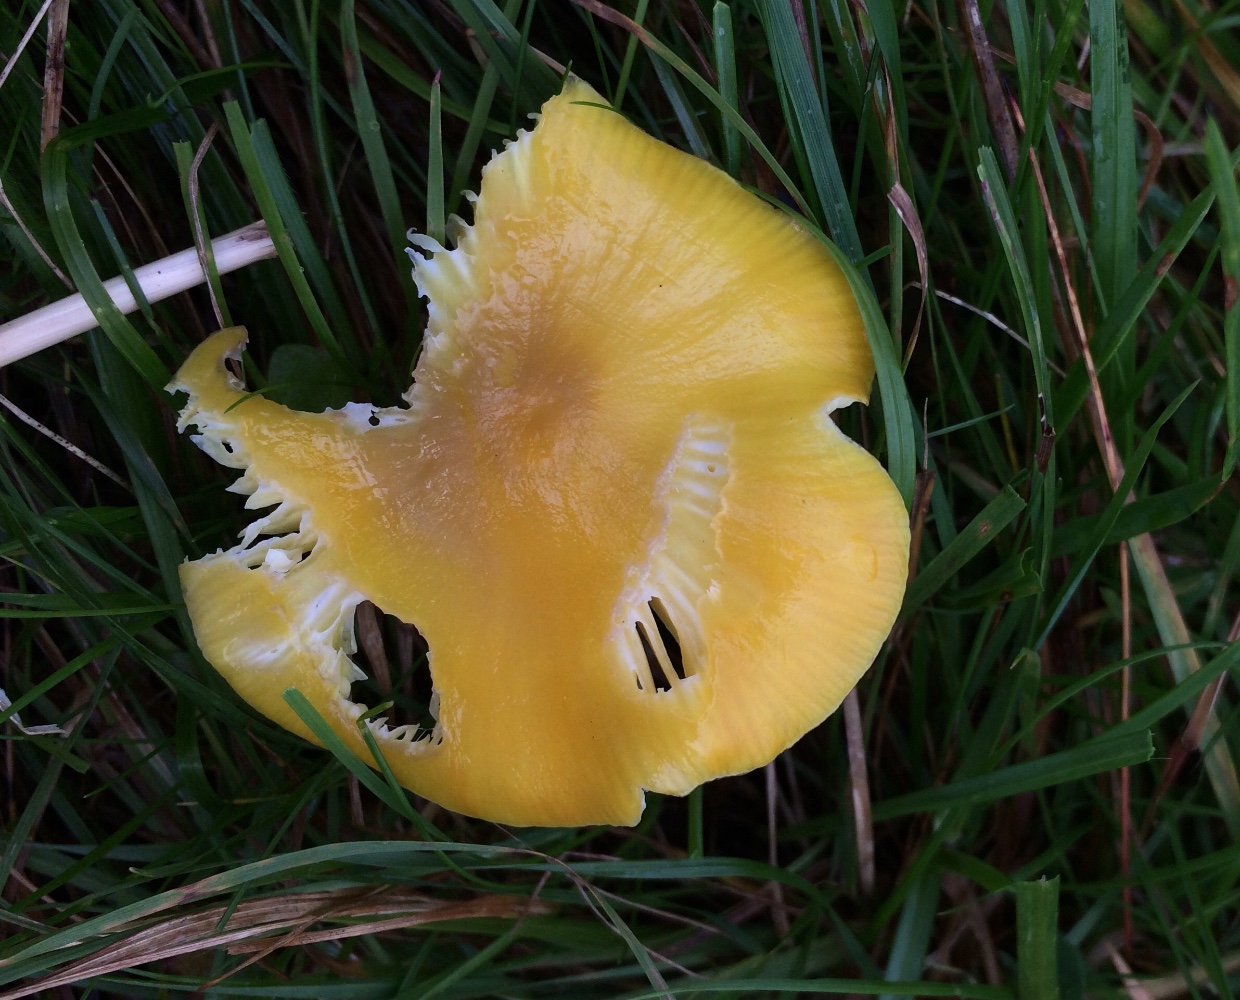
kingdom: Fungi
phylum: Basidiomycota
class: Agaricomycetes
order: Agaricales
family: Hygrophoraceae
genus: Hygrocybe
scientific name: Hygrocybe chlorophana
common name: gul vokshat
